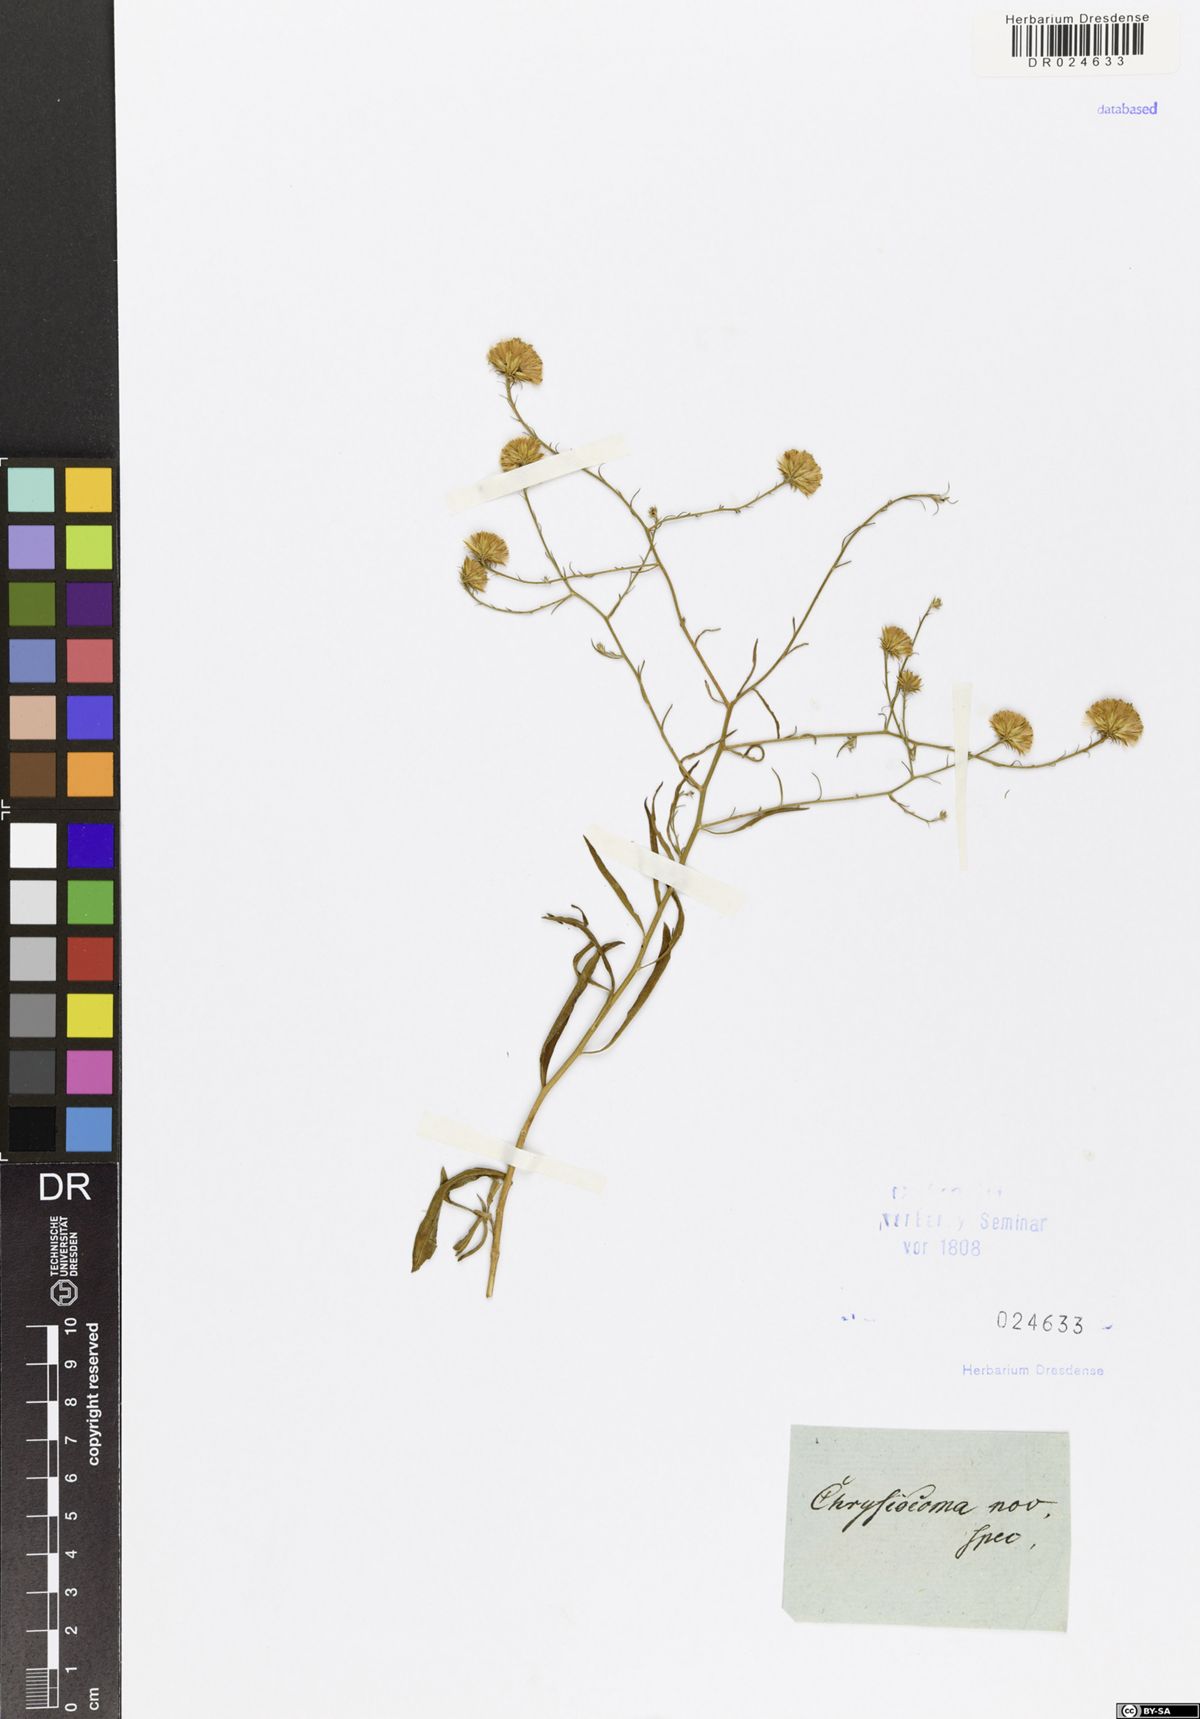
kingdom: Plantae
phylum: Tracheophyta
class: Magnoliopsida
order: Asterales
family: Asteraceae
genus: Chrysocoma
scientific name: Chrysocoma
